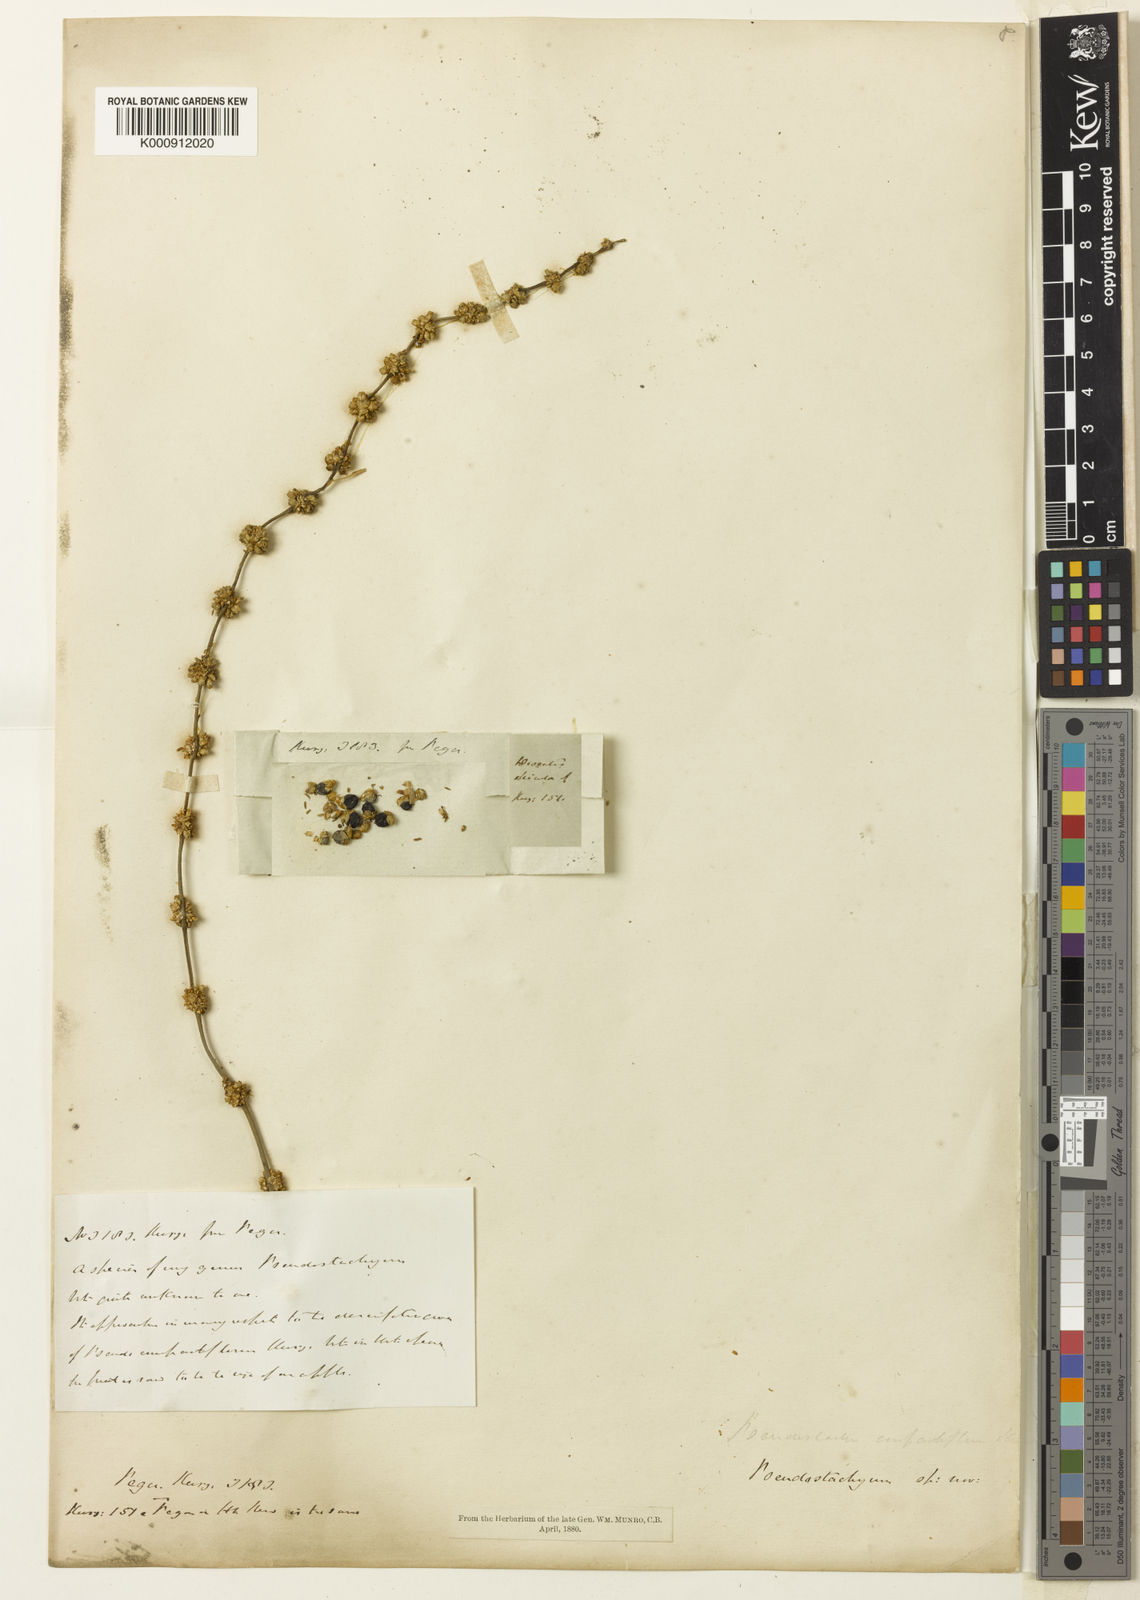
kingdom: Plantae
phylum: Tracheophyta
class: Liliopsida
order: Poales
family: Poaceae
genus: Melocalamus
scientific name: Melocalamus compactiflorus
